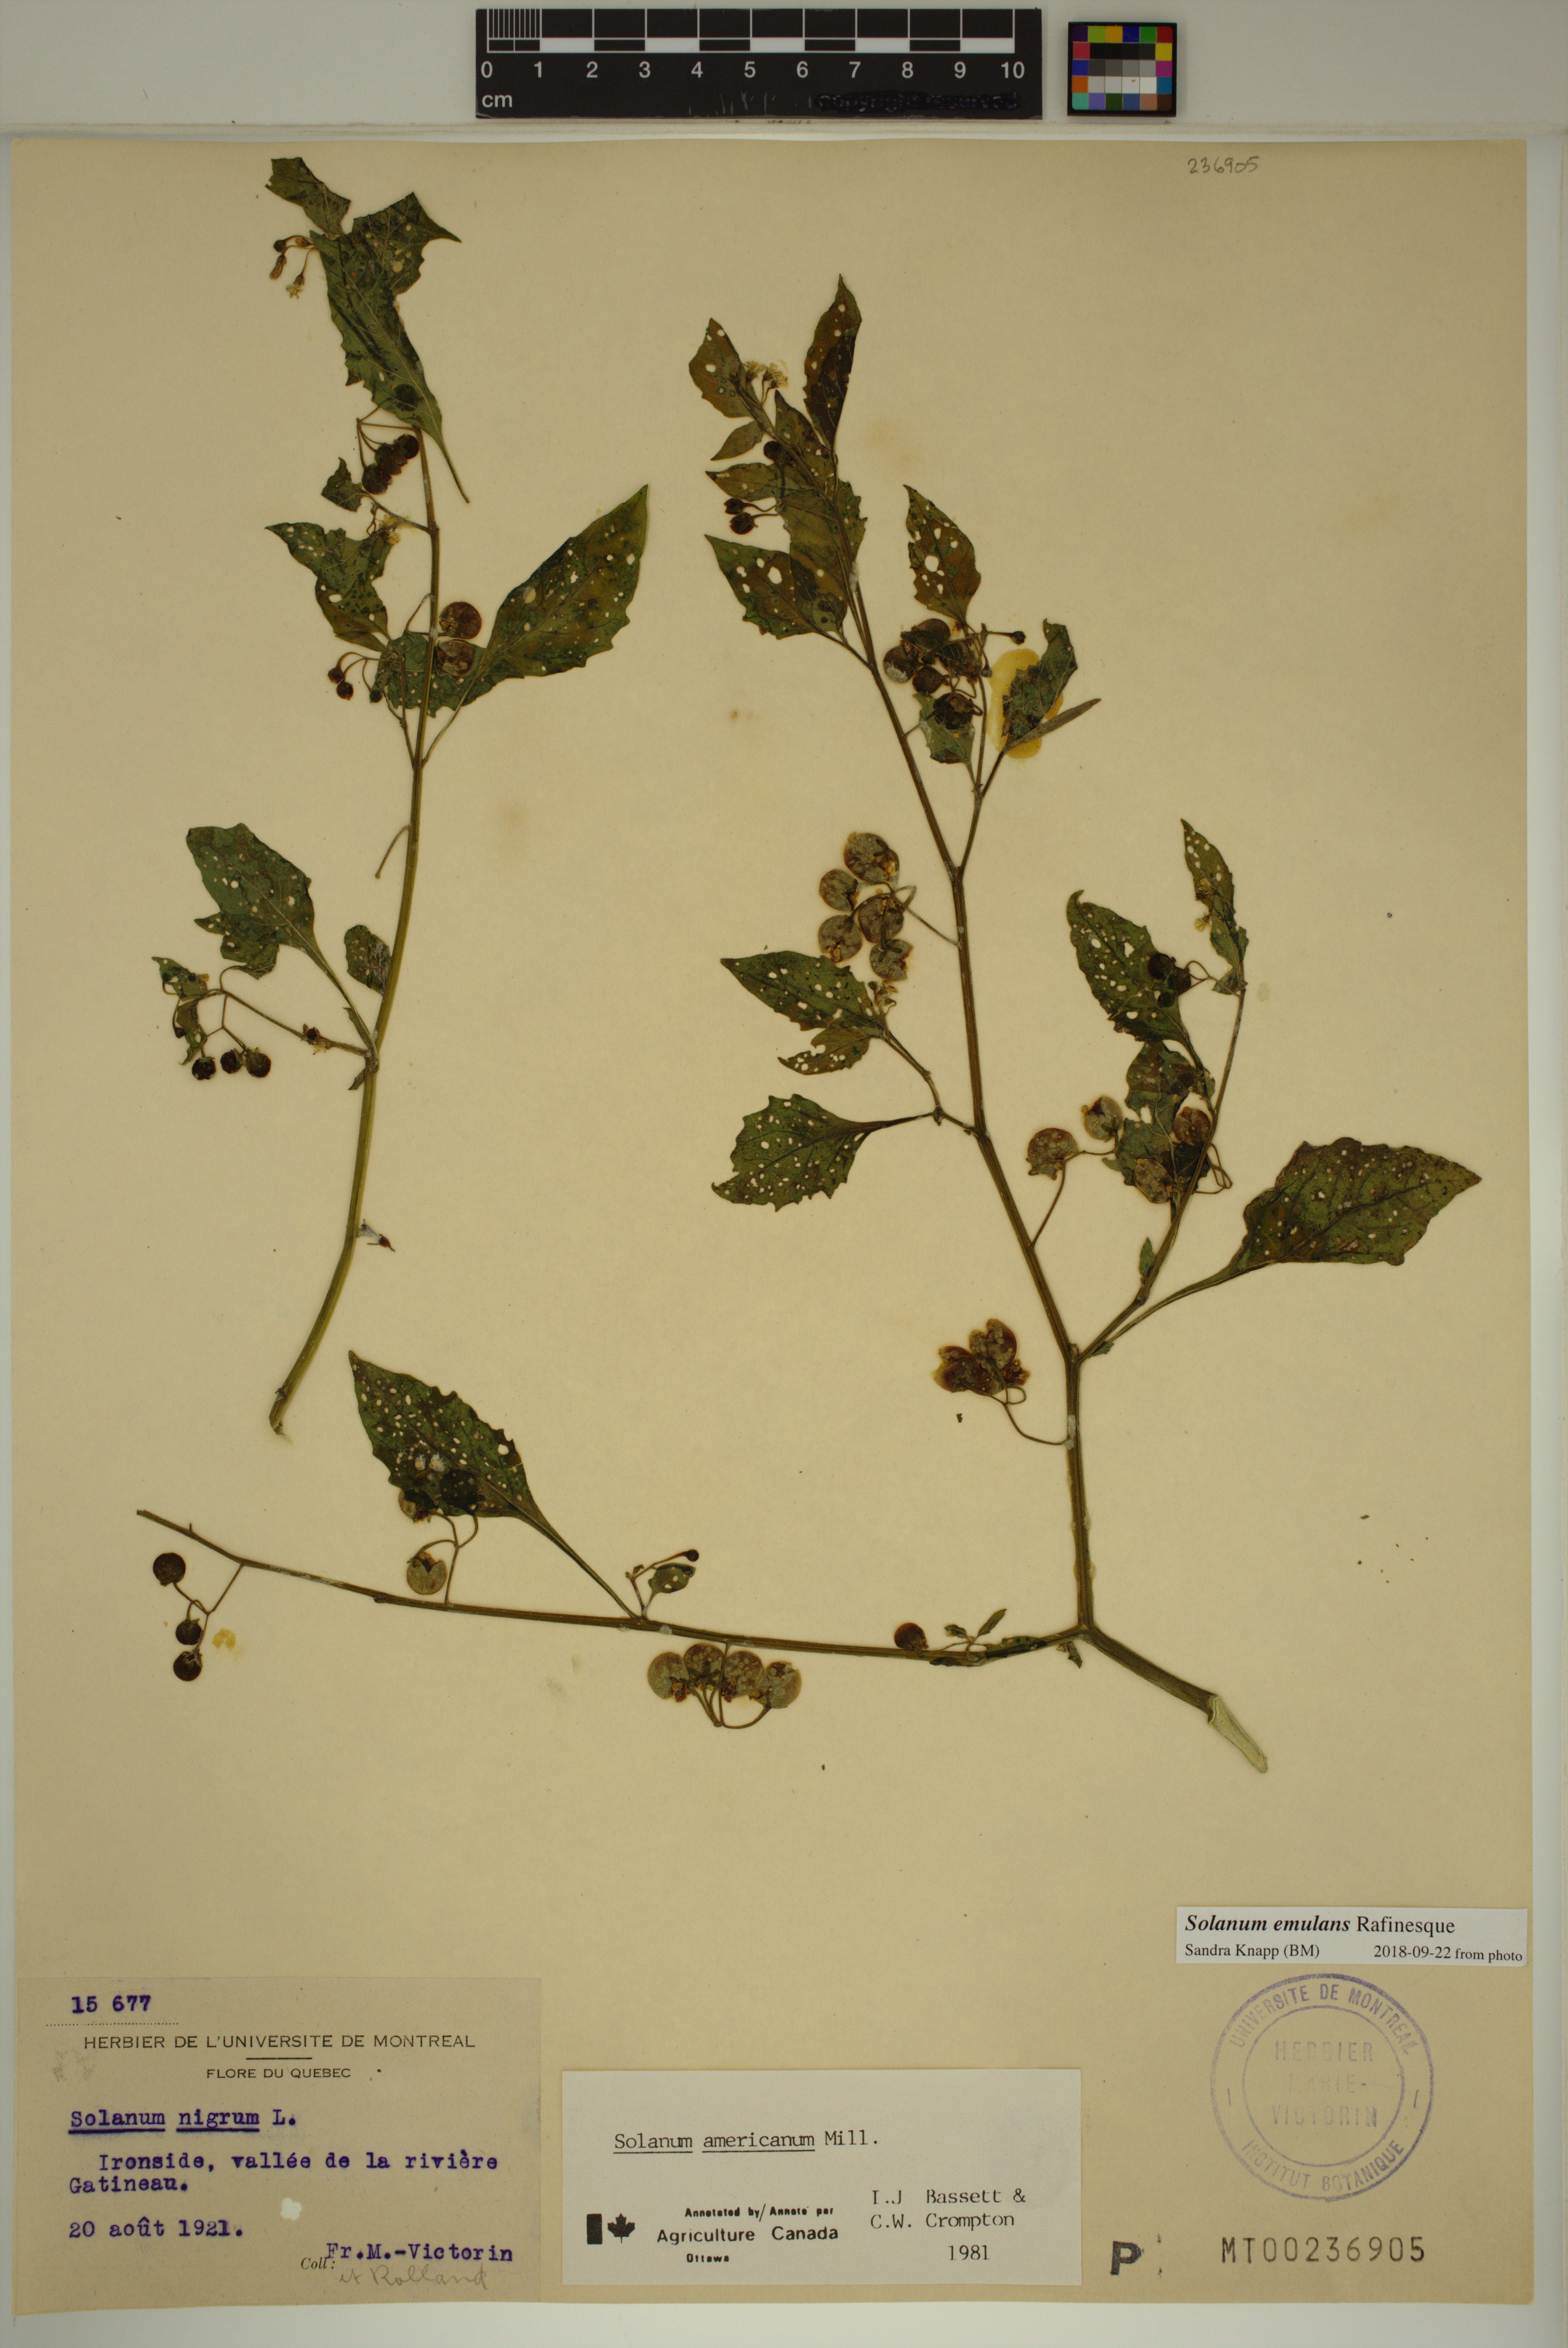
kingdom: Plantae
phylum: Tracheophyta
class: Magnoliopsida
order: Solanales
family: Solanaceae
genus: Solanum
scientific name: Solanum emulans
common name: Eastern black nightshade
